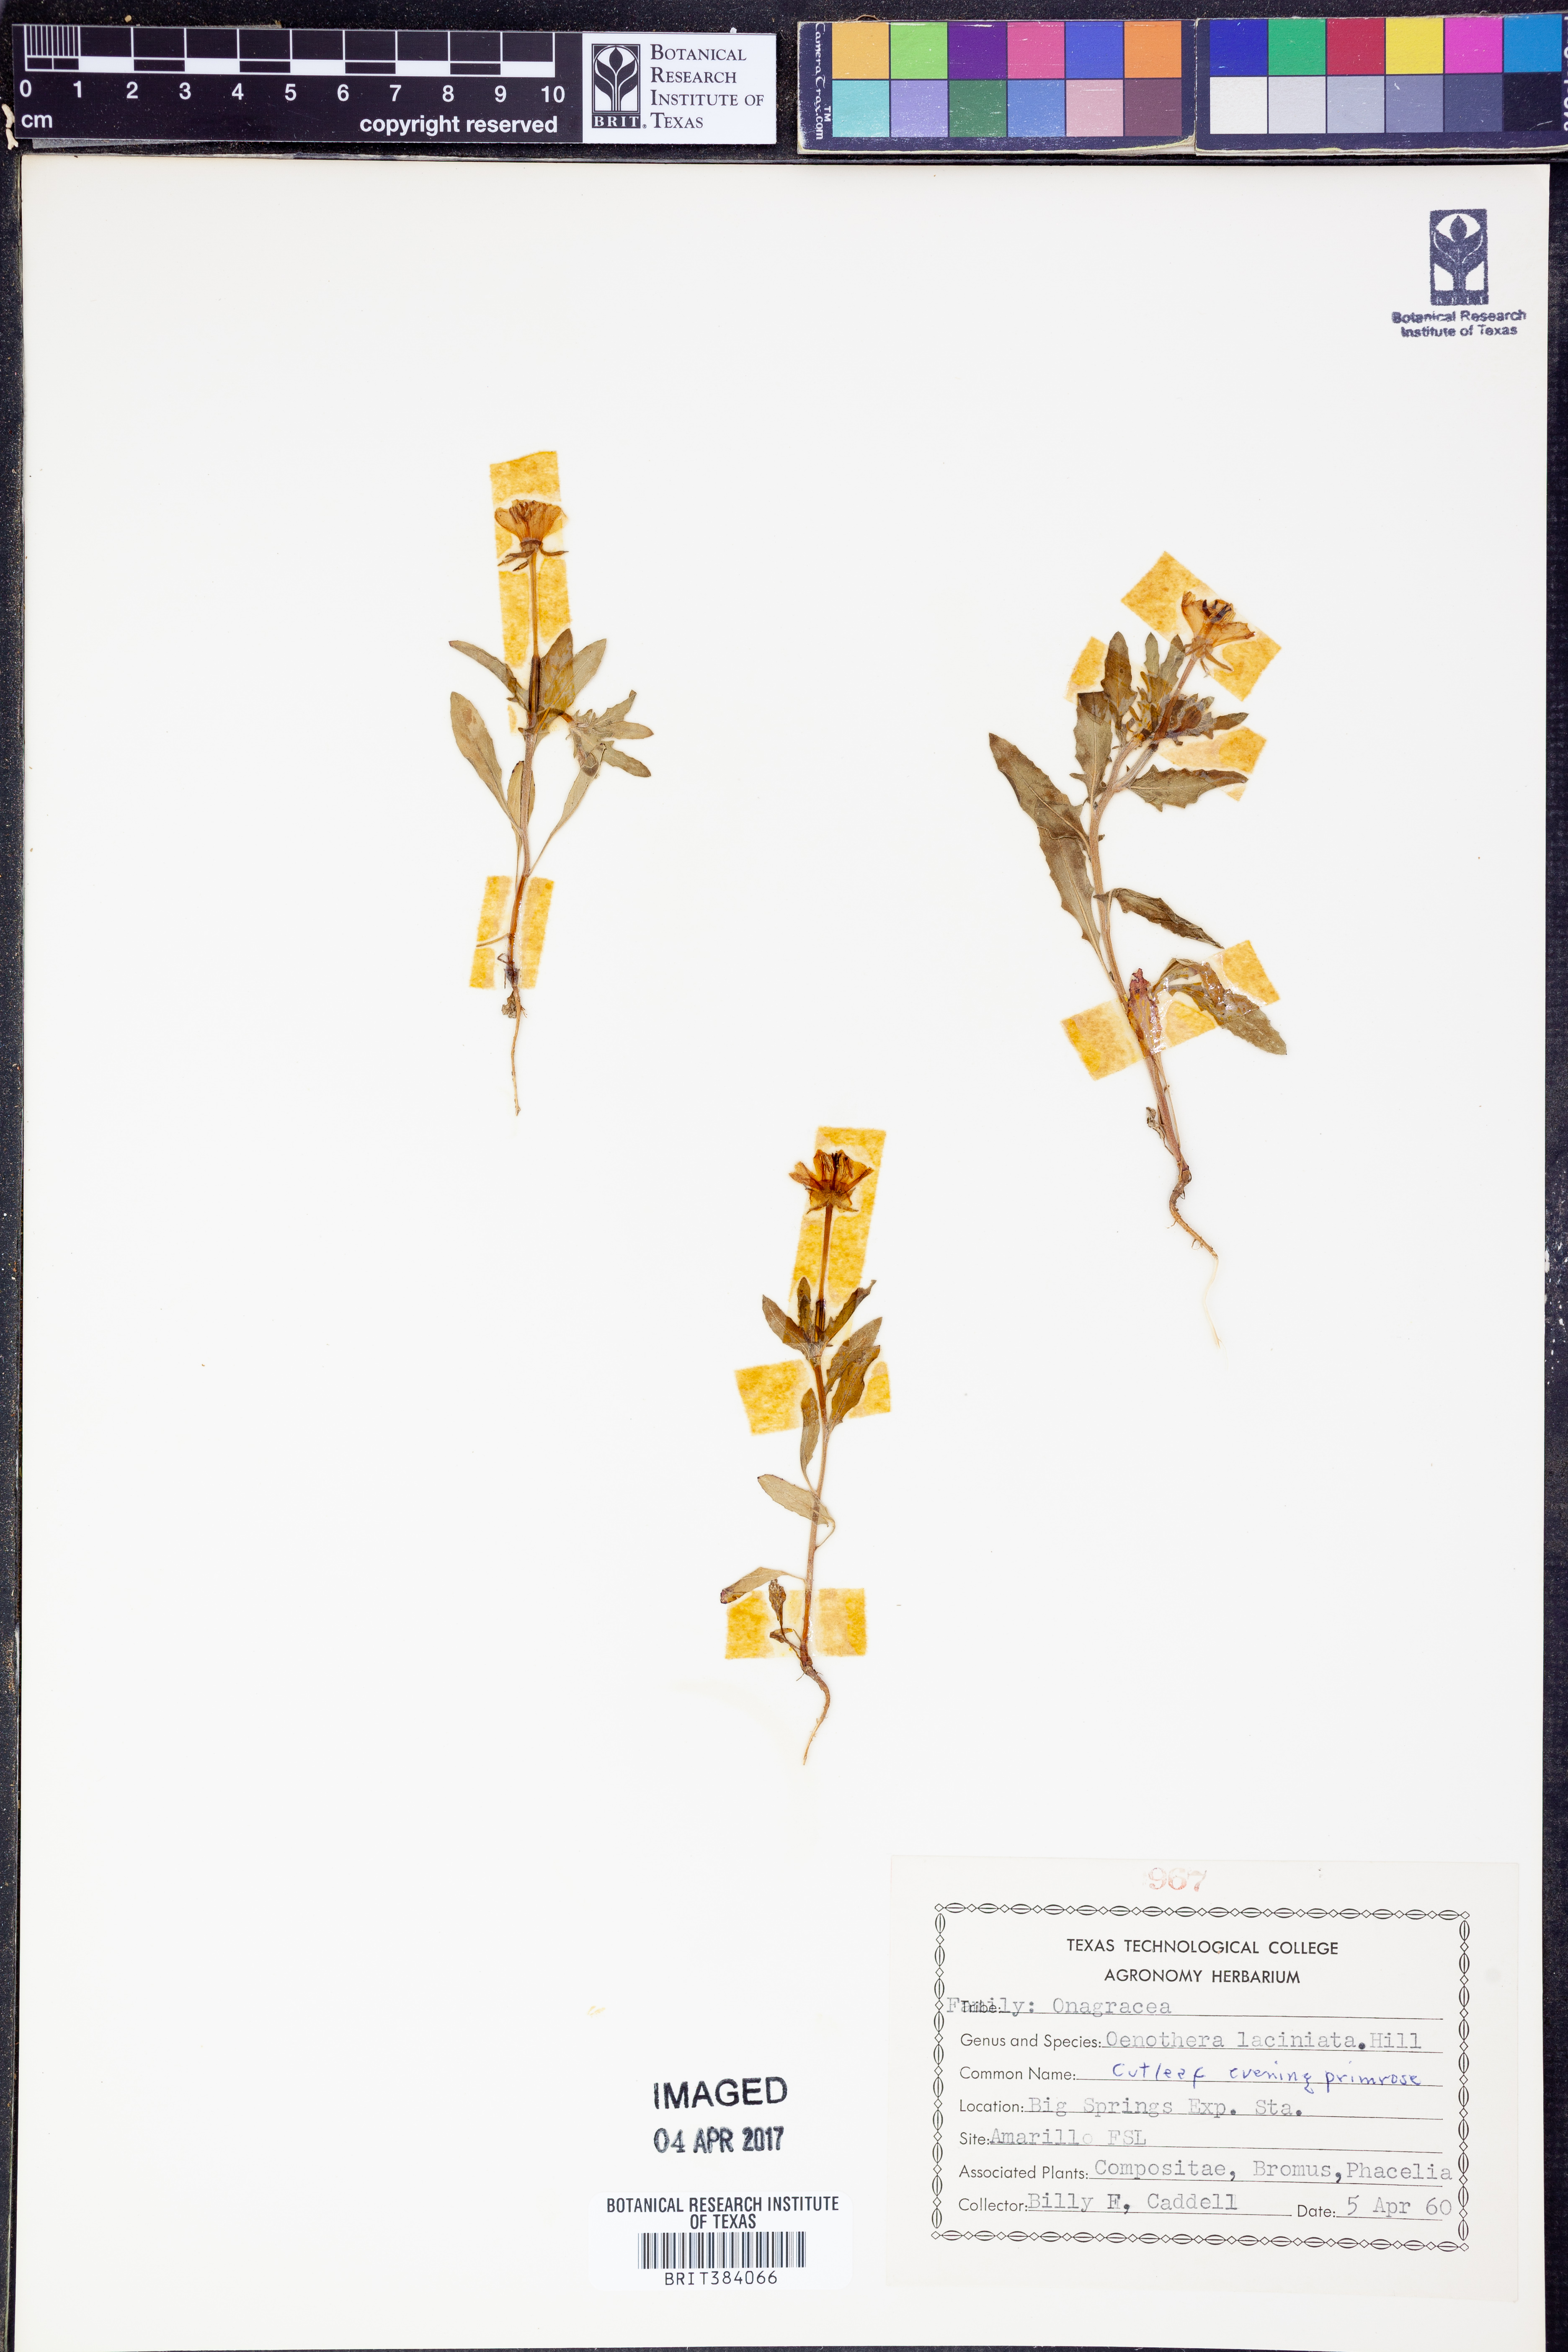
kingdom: Plantae
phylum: Tracheophyta
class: Magnoliopsida
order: Myrtales
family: Onagraceae
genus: Oenothera
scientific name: Oenothera laciniata
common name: Cut-leaved evening-primrose
